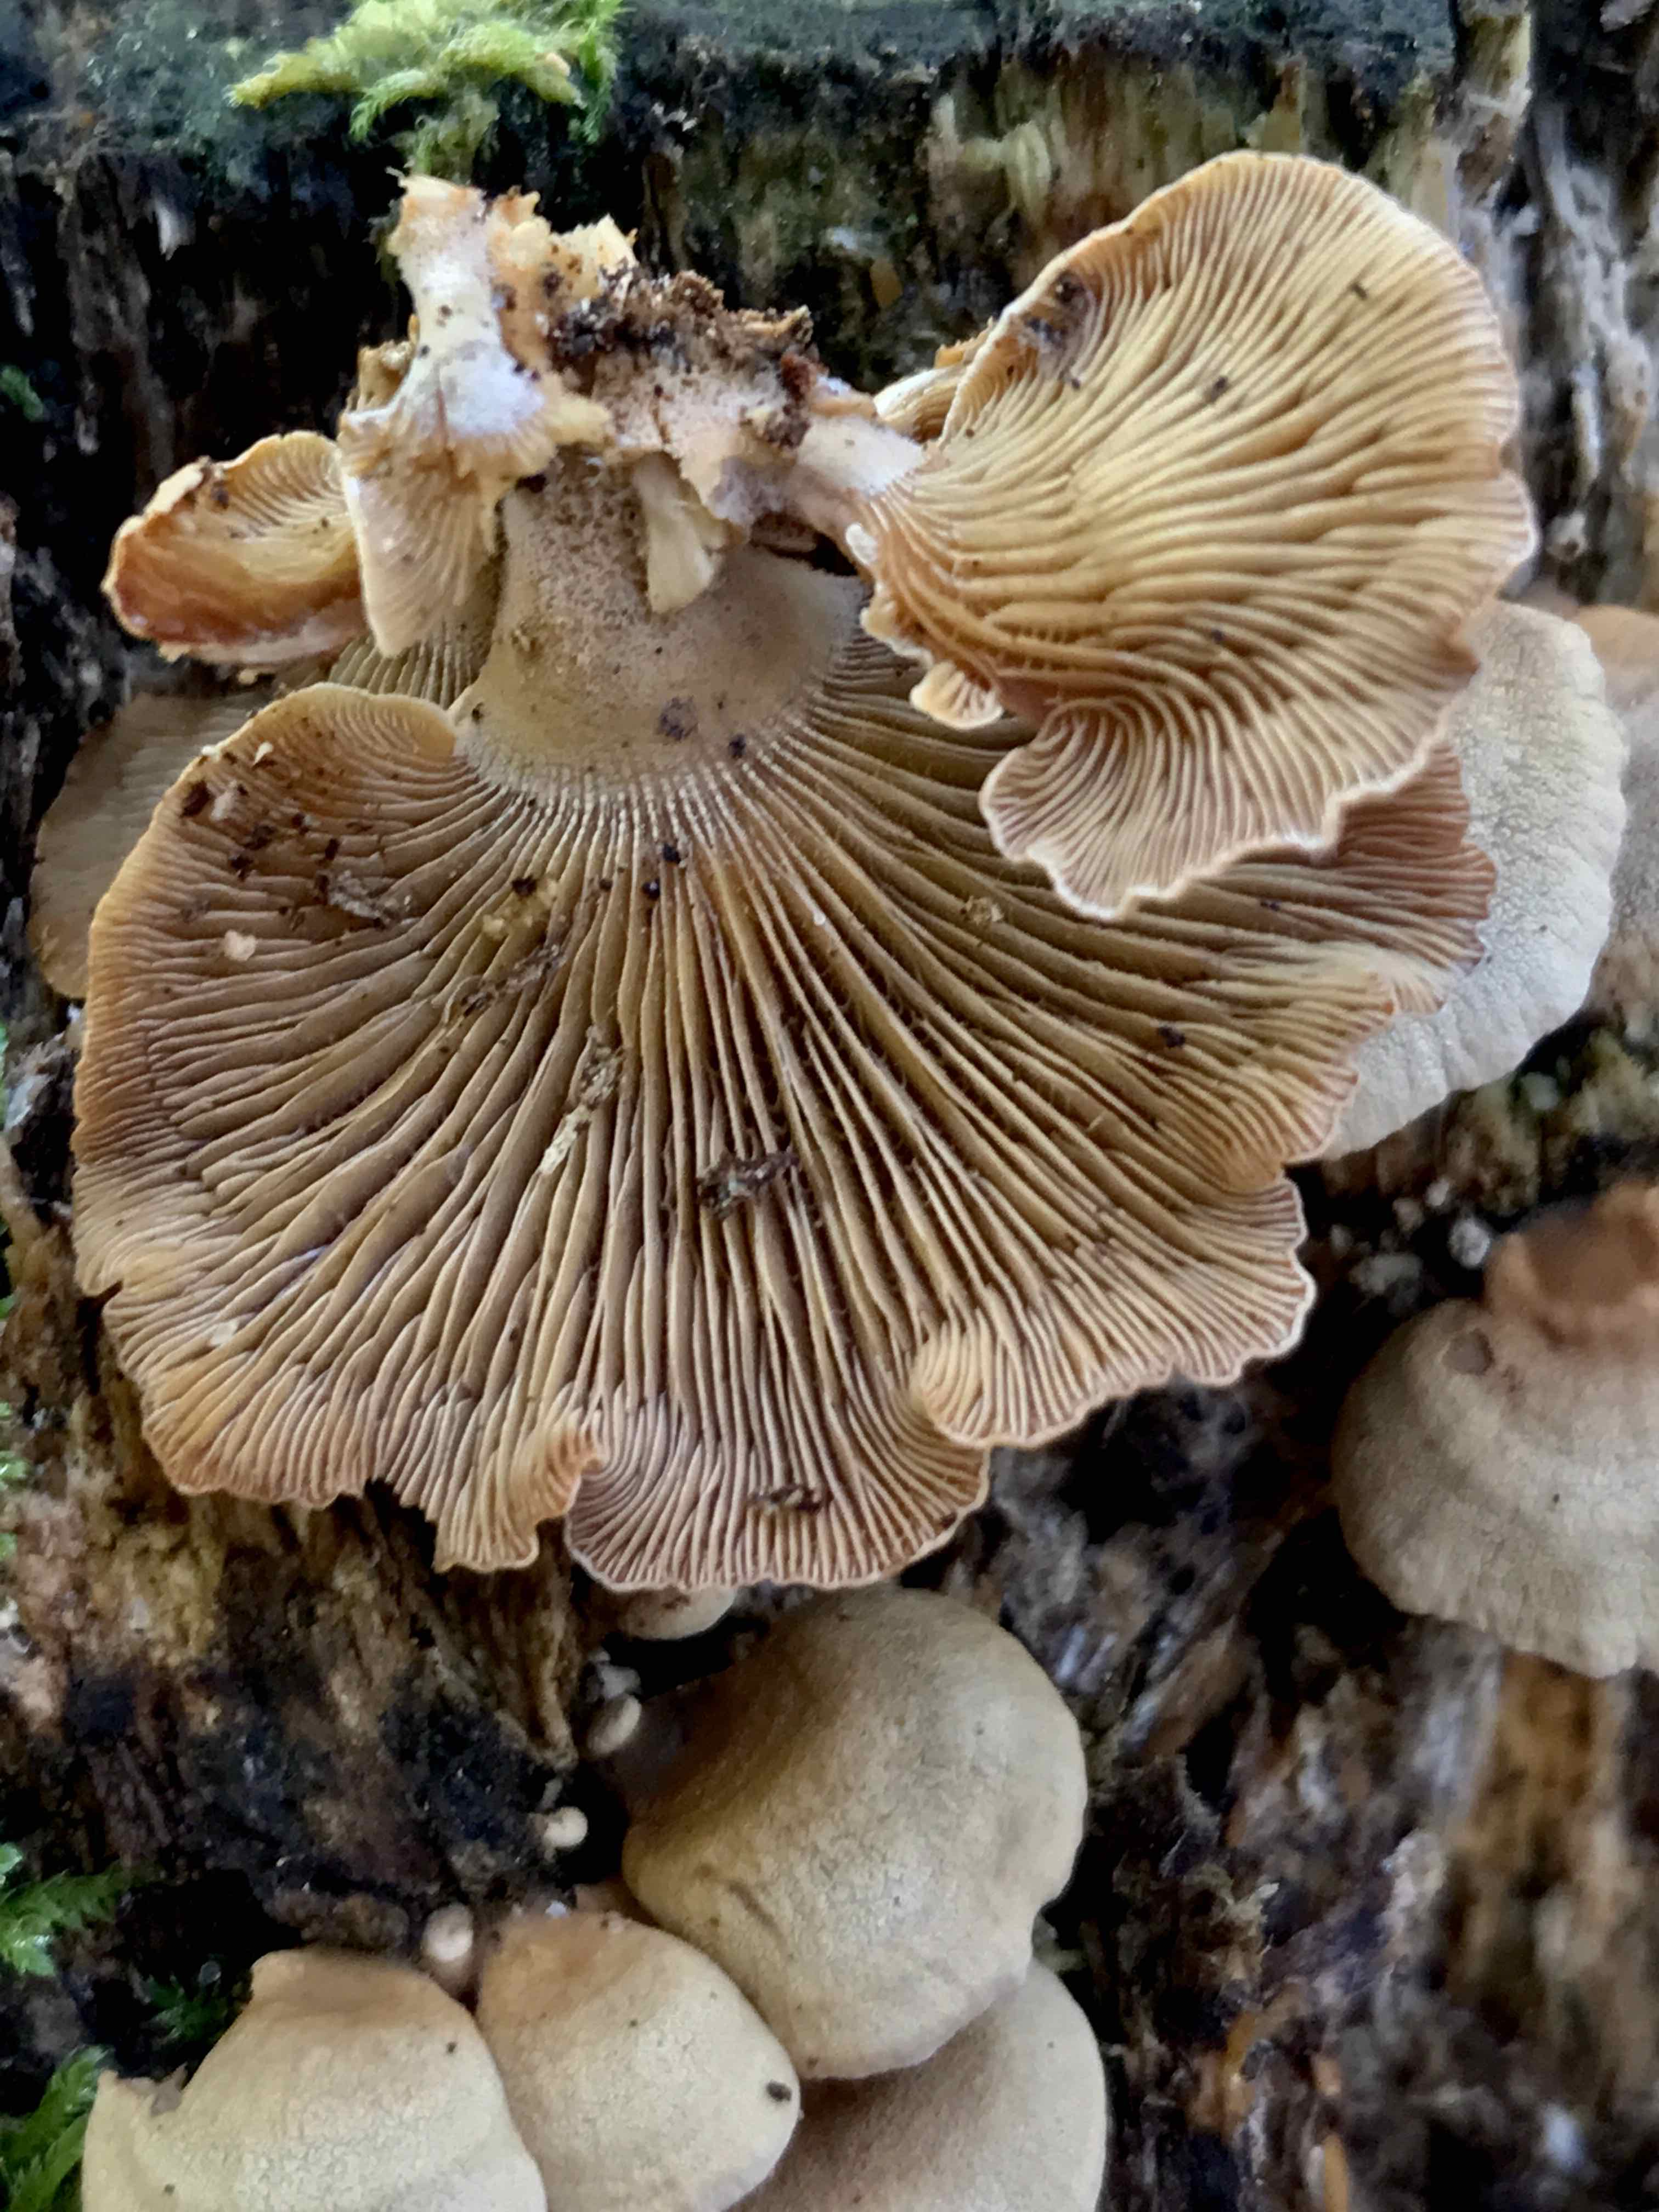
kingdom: Fungi
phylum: Basidiomycota
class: Agaricomycetes
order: Agaricales
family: Mycenaceae
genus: Panellus
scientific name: Panellus stipticus
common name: kliddet epaulethat
